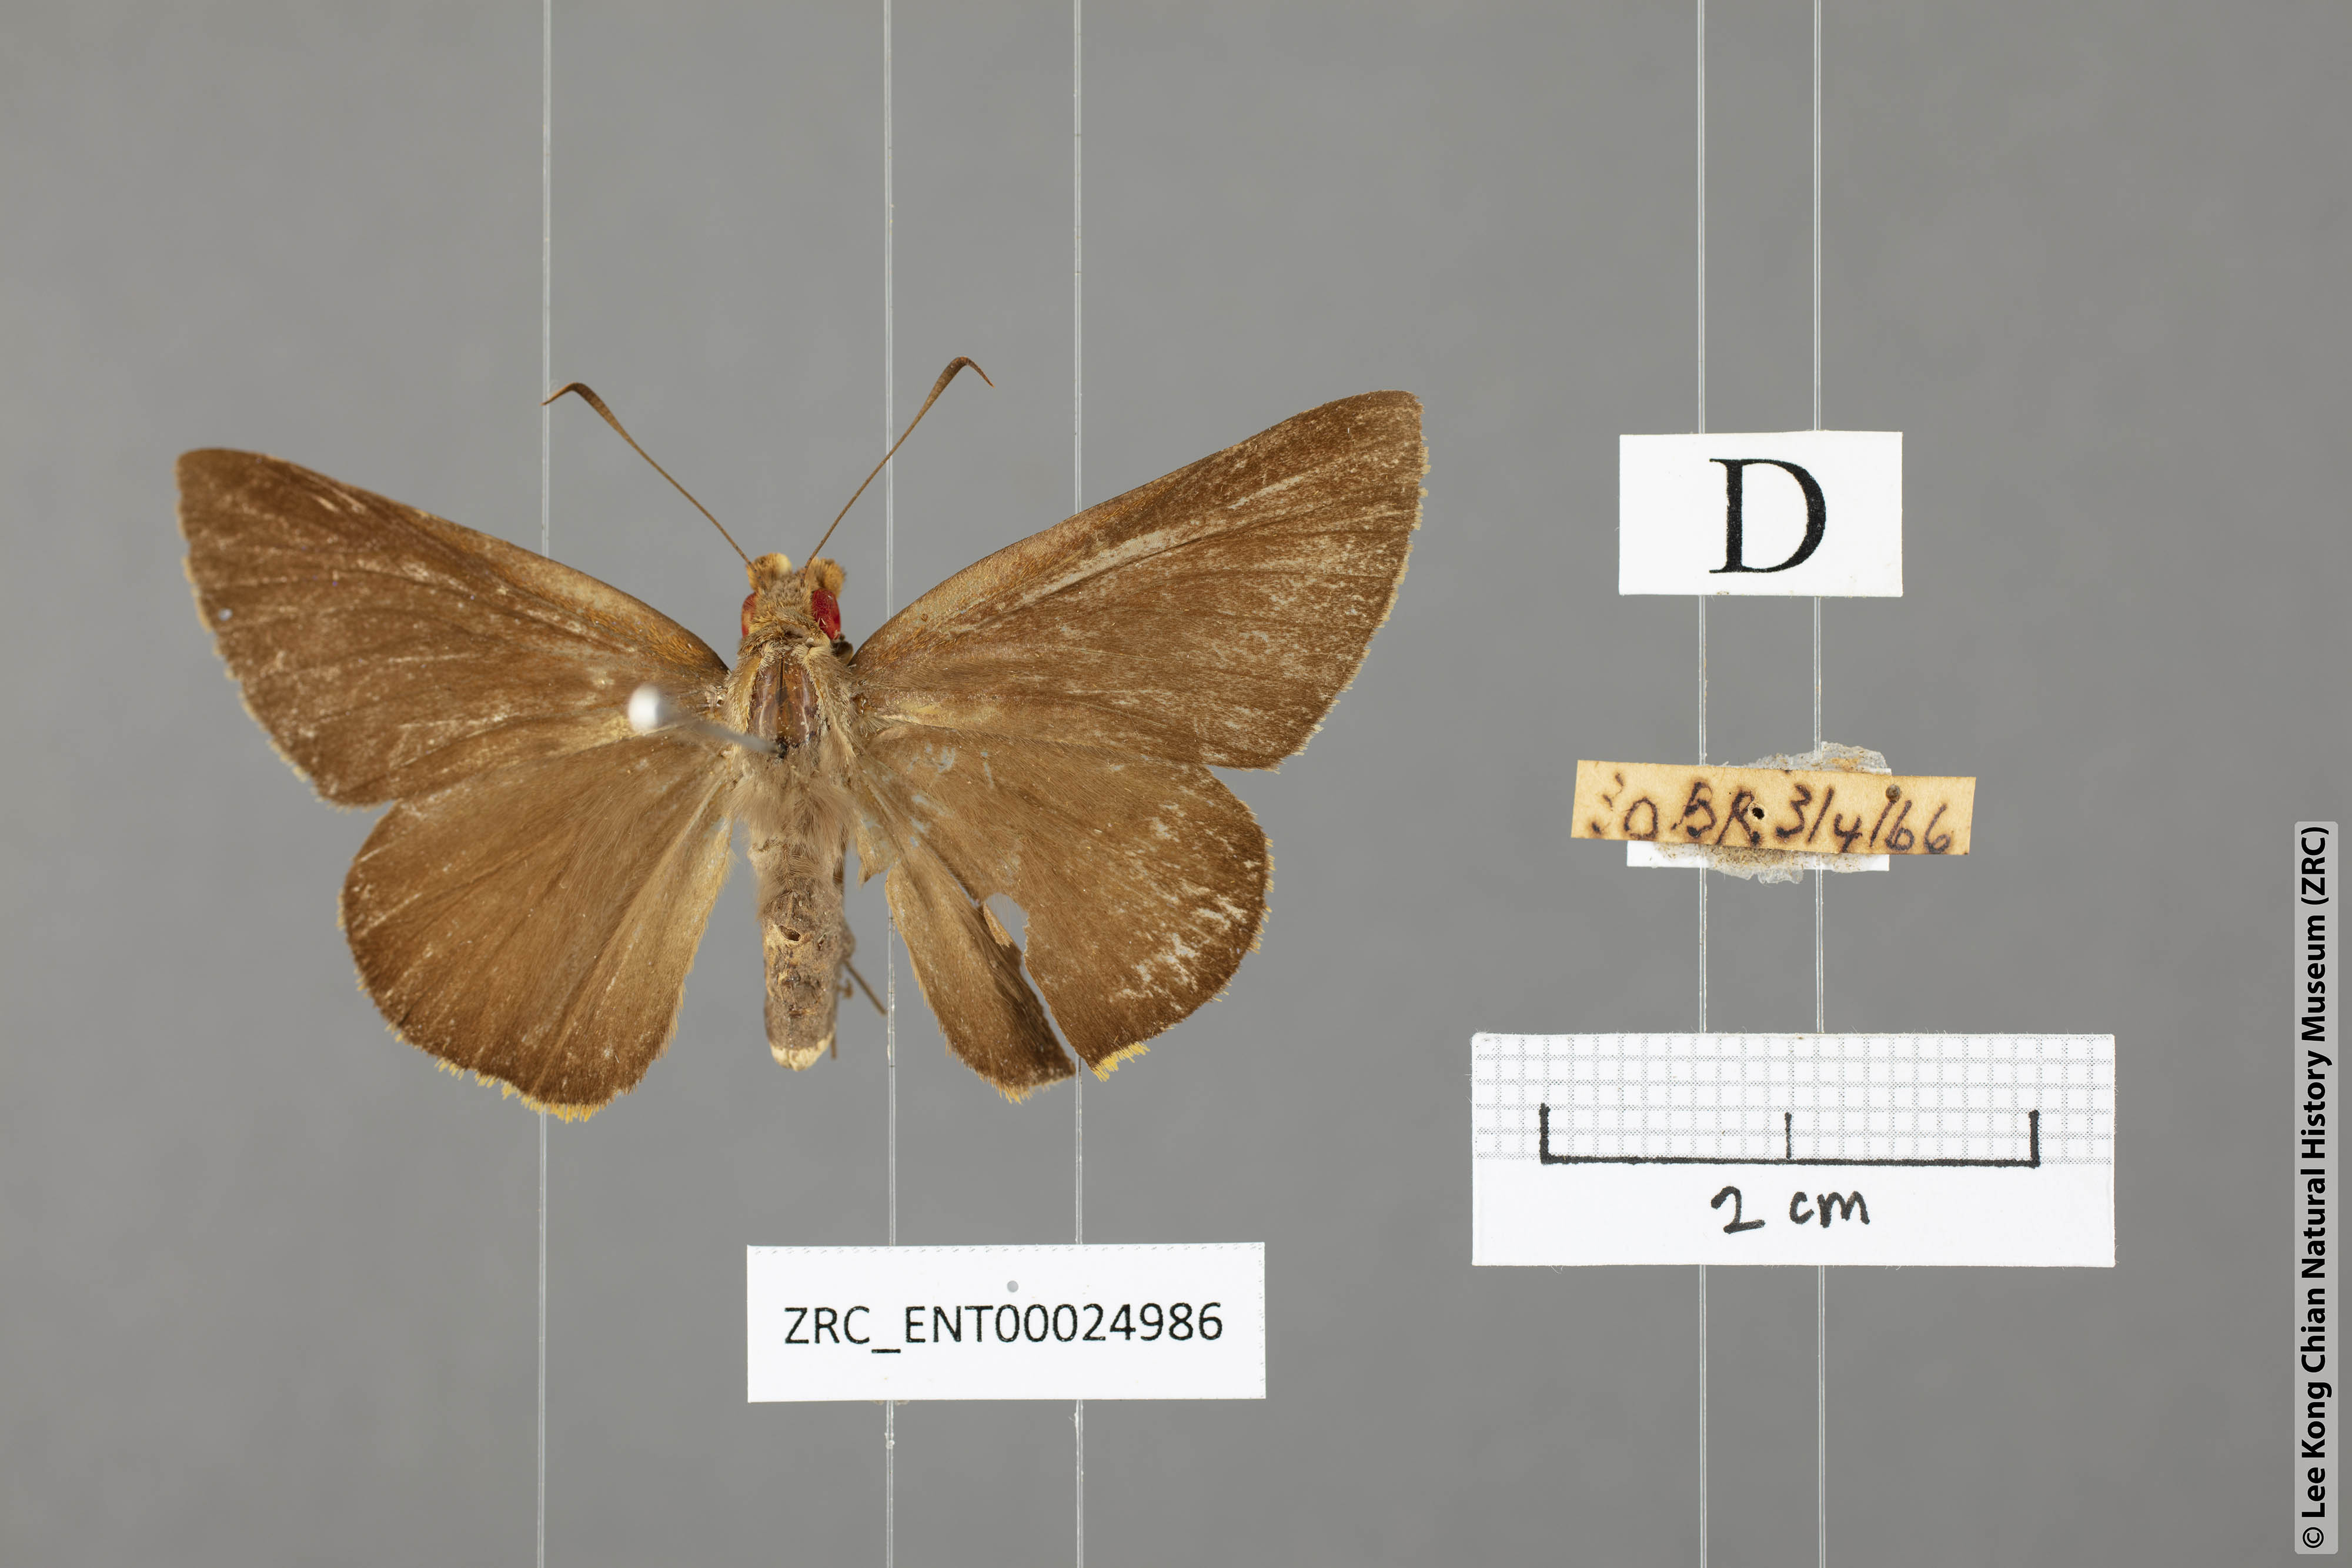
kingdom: Animalia
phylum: Arthropoda
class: Insecta
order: Lepidoptera
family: Hesperiidae
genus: Matapa
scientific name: Matapa druna
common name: Grey-brand redeye
